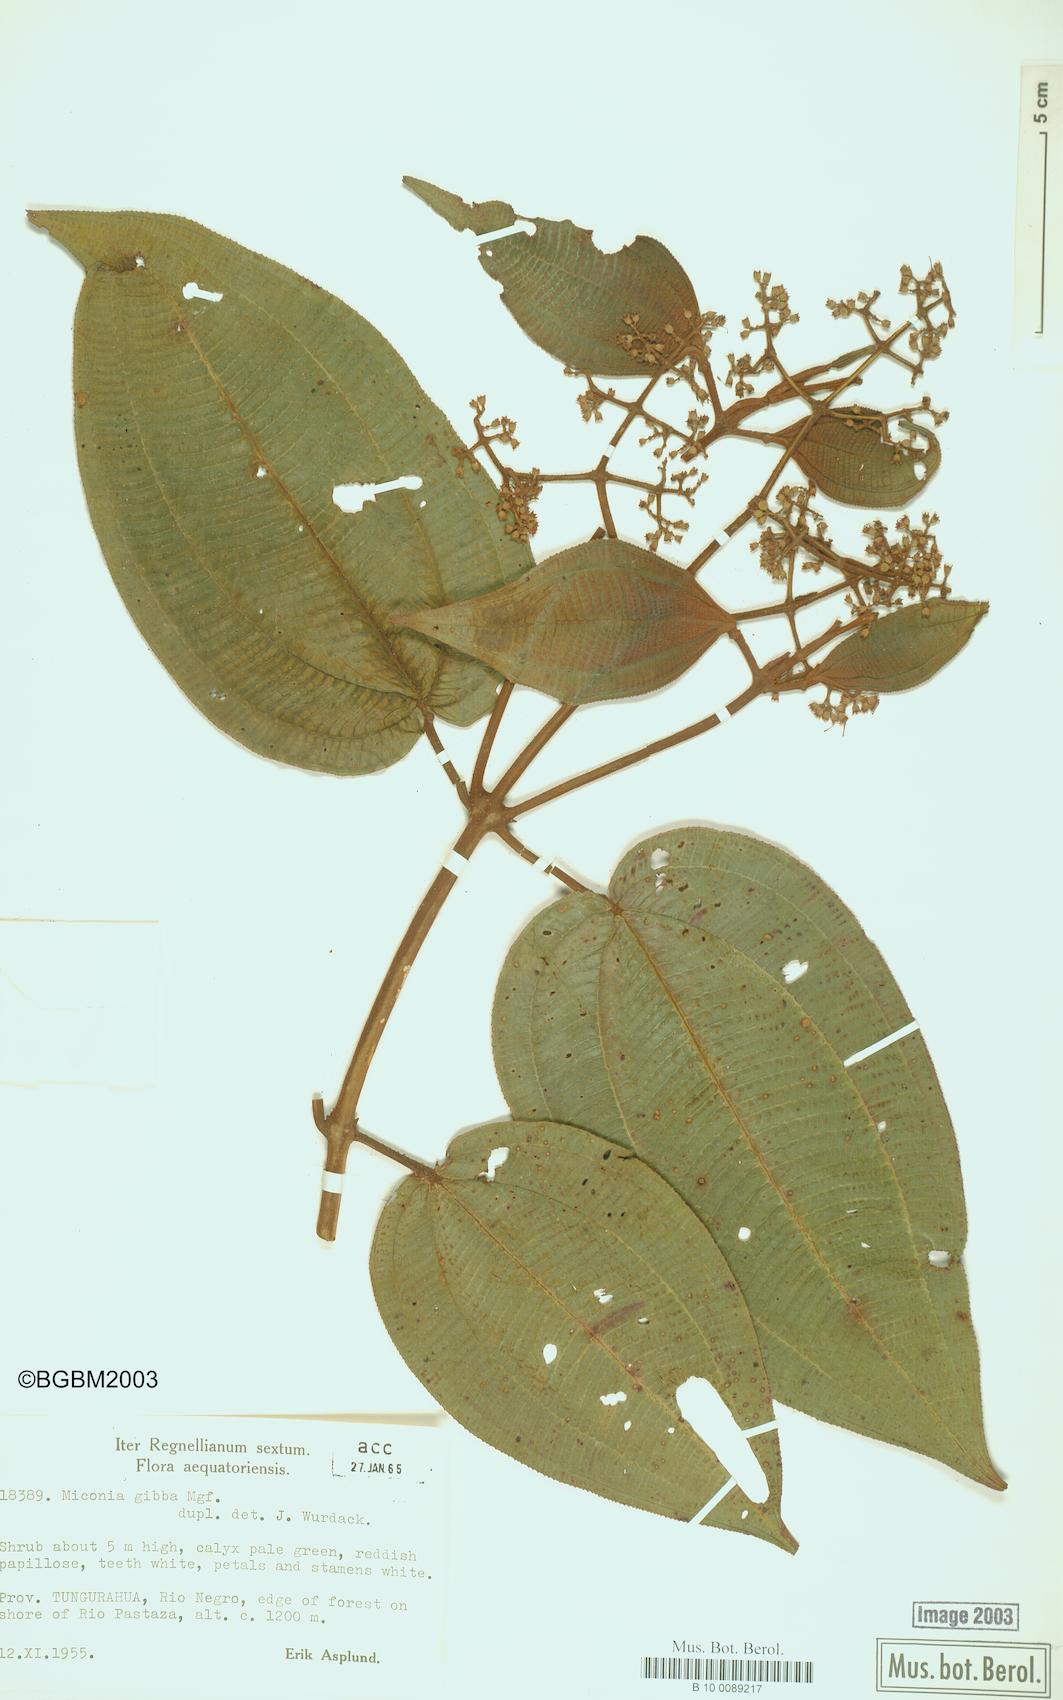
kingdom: Plantae
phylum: Tracheophyta
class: Magnoliopsida
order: Myrtales
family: Melastomataceae
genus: Miconia
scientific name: Miconia gibba
